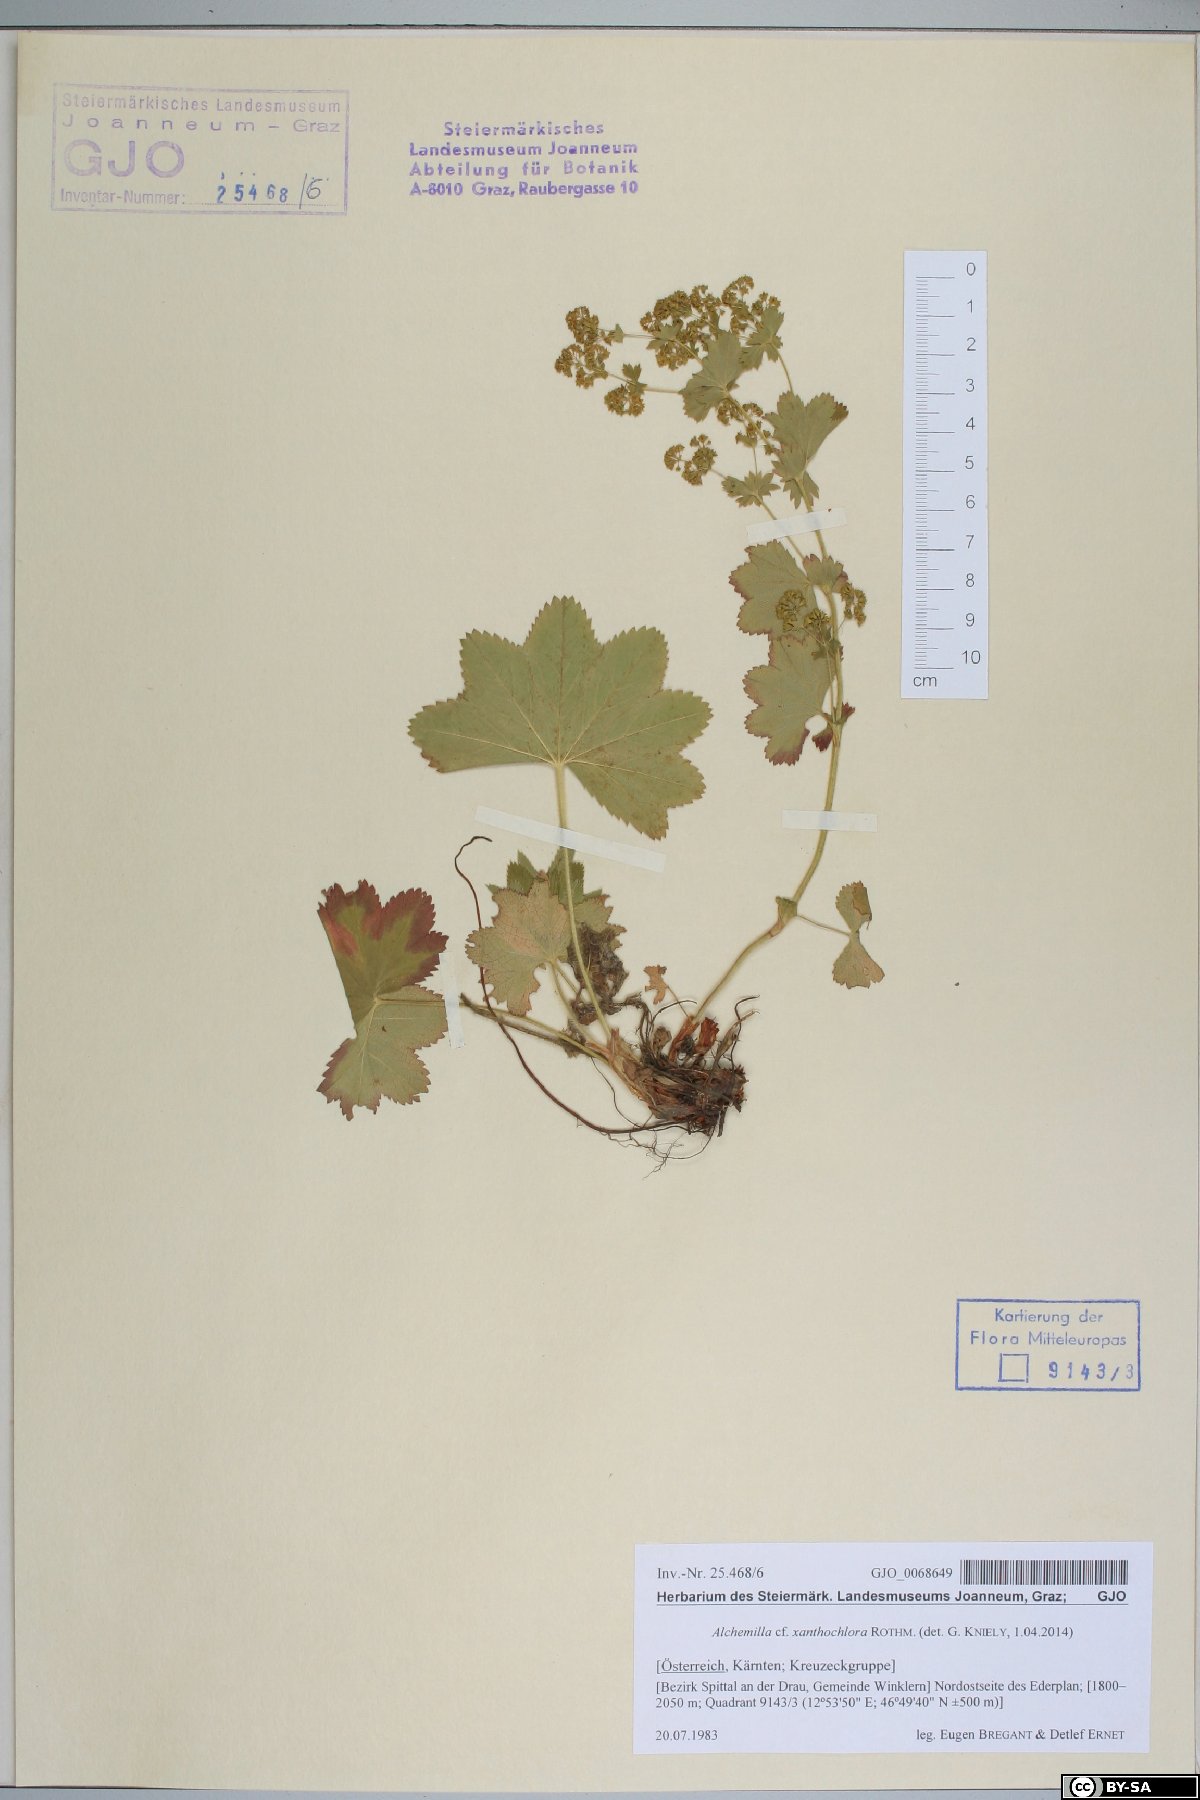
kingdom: Plantae
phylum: Tracheophyta
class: Magnoliopsida
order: Rosales
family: Rosaceae
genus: Alchemilla
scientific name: Alchemilla xanthochlora
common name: Intermediate lady's-mantle
